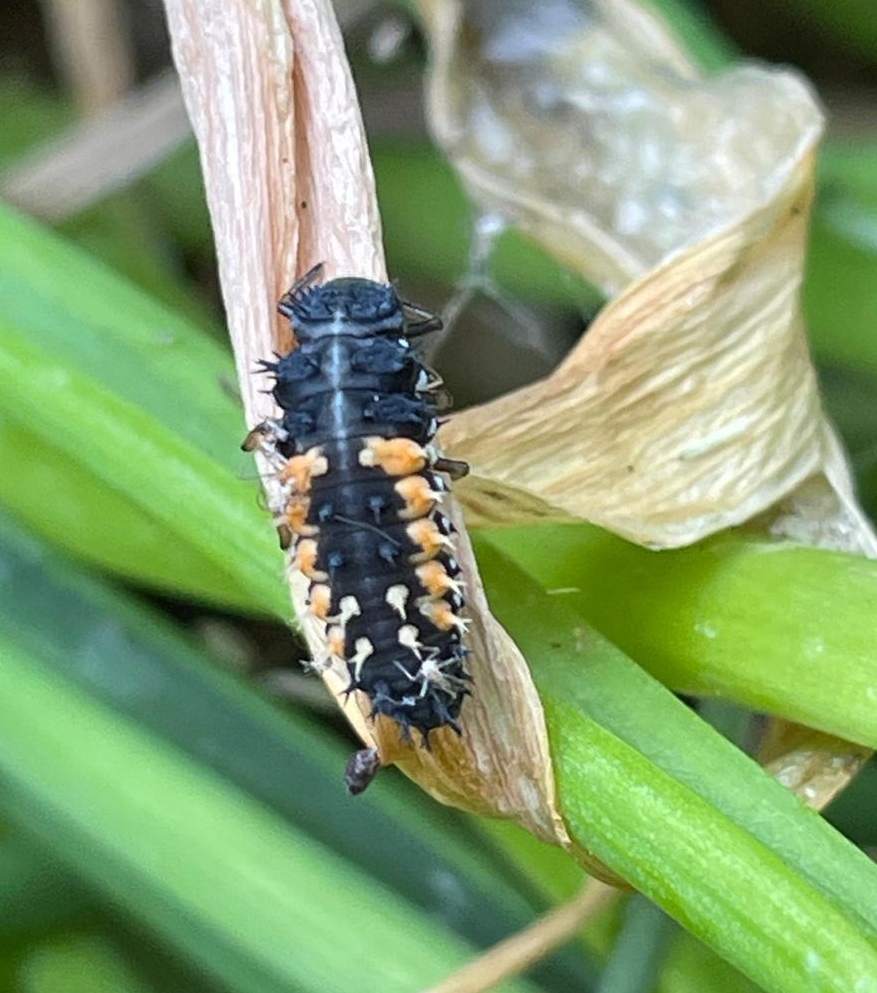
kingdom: Animalia
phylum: Arthropoda
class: Insecta
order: Coleoptera
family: Coccinellidae
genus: Harmonia
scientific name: Harmonia axyridis
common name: Harlekinmariehøne
